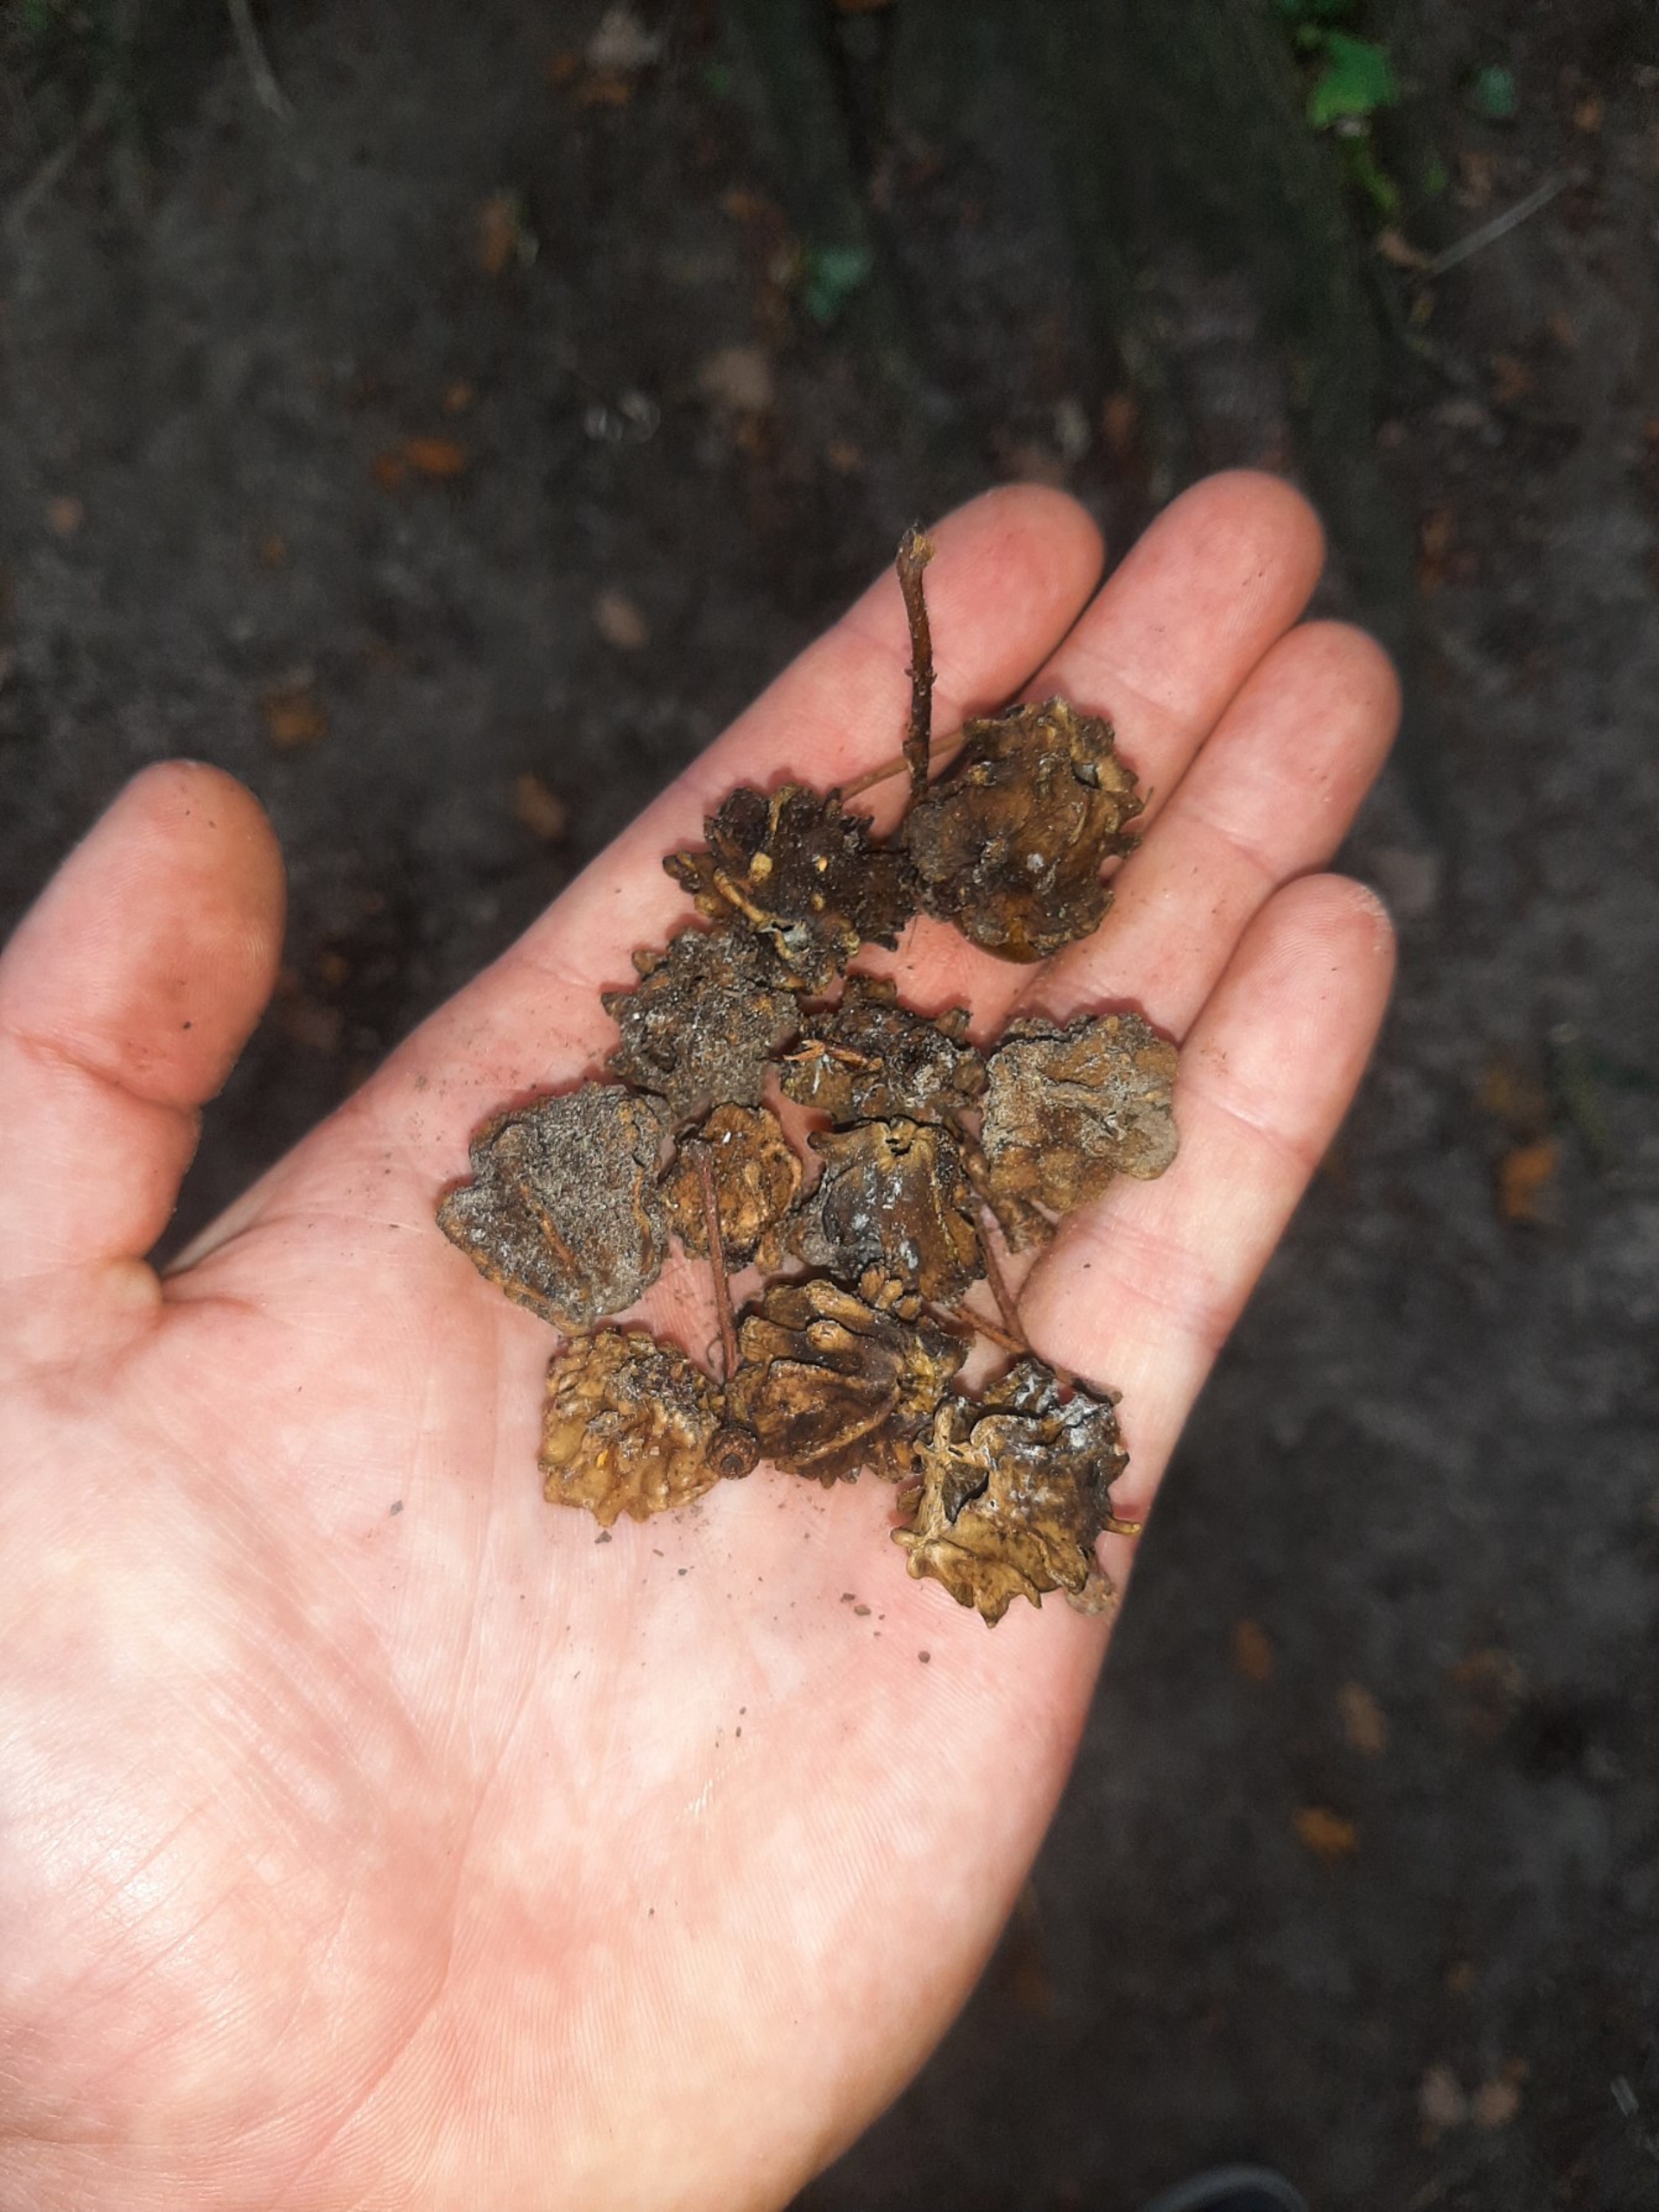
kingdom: Animalia
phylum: Arthropoda
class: Insecta
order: Hymenoptera
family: Cynipidae
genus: Andricus
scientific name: Andricus quercuscalicis
